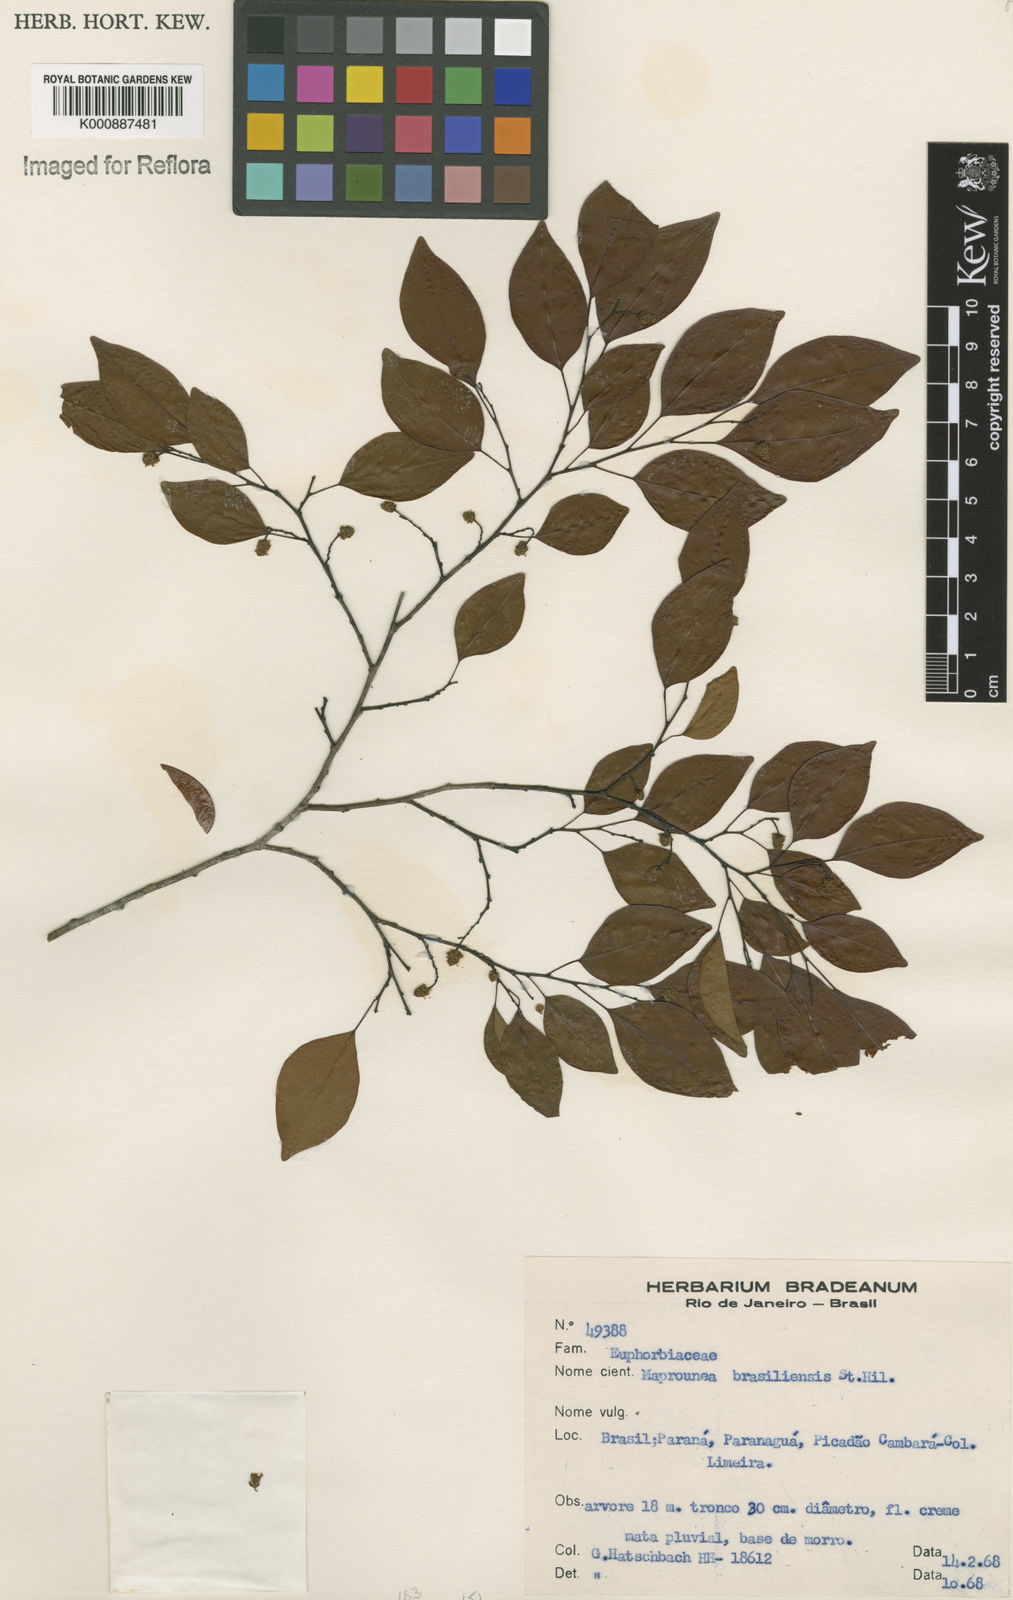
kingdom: Plantae
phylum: Tracheophyta
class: Magnoliopsida
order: Malpighiales
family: Euphorbiaceae
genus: Maprounea
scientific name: Maprounea brasiliensis
